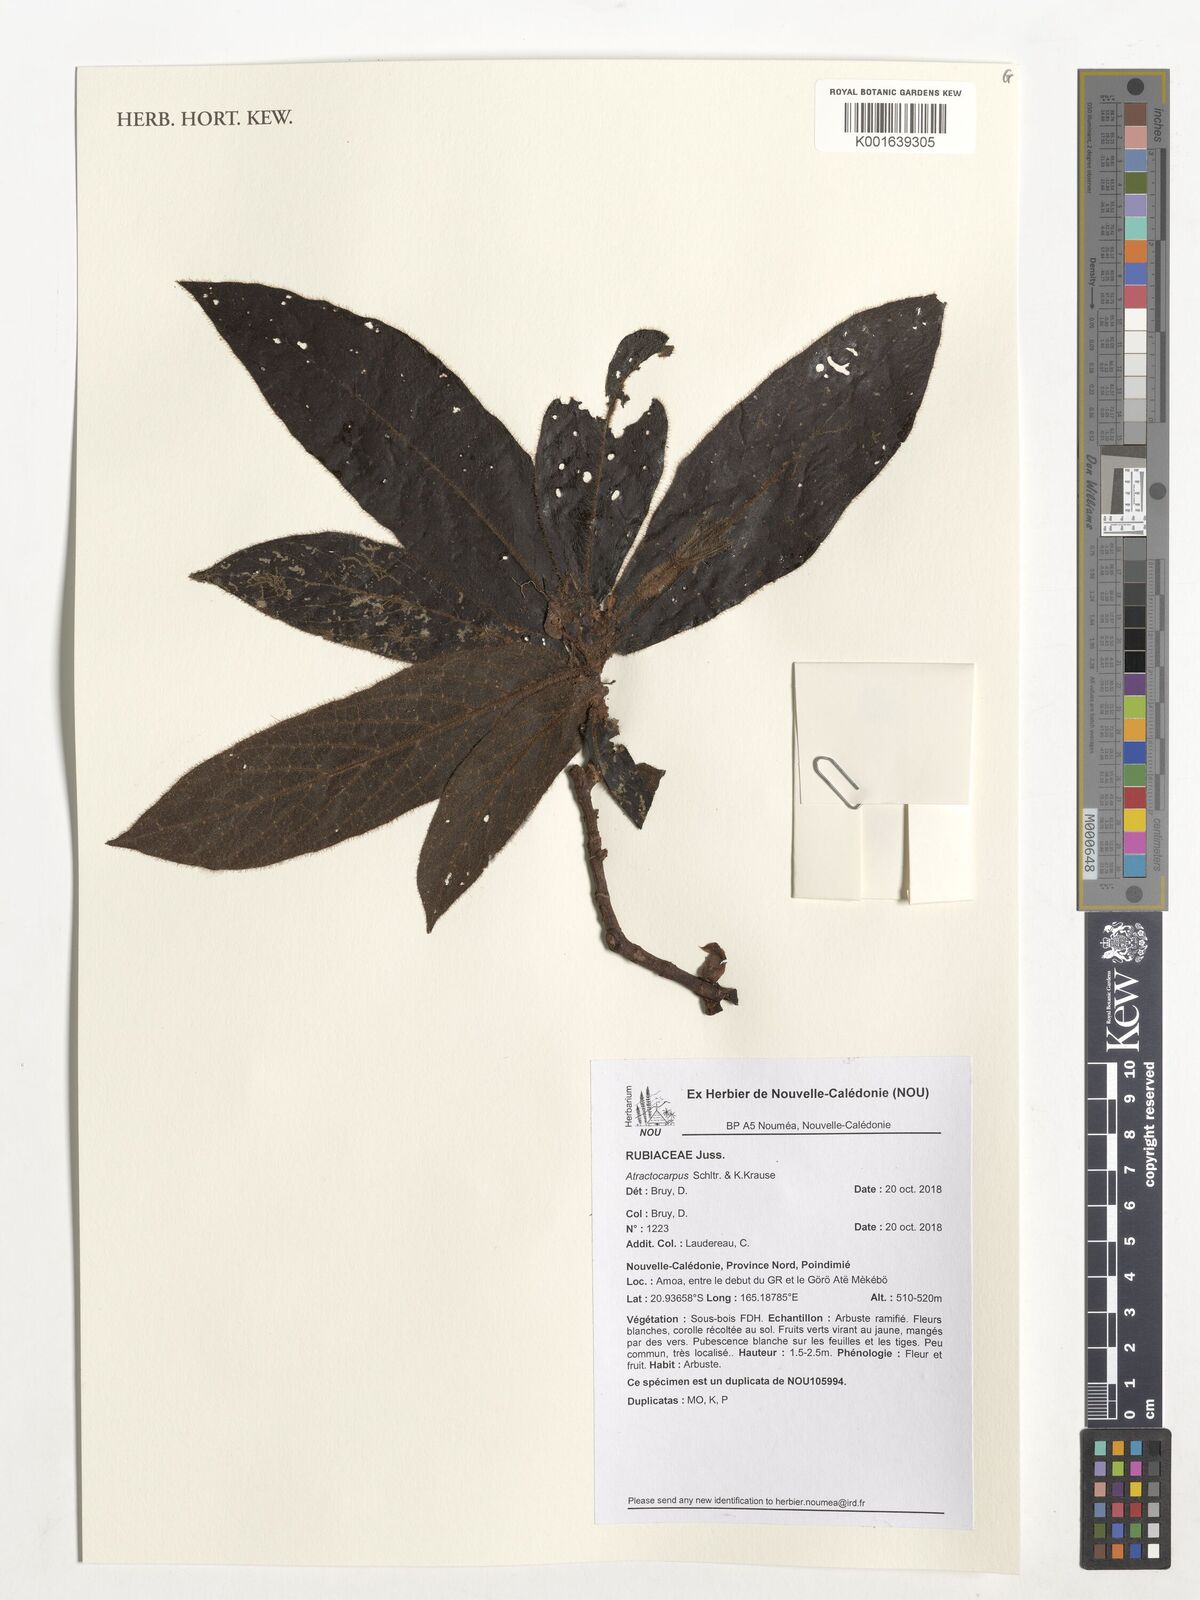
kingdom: Plantae
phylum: Tracheophyta
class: Magnoliopsida
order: Gentianales
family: Rubiaceae
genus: Atractocarpus
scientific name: Atractocarpus
